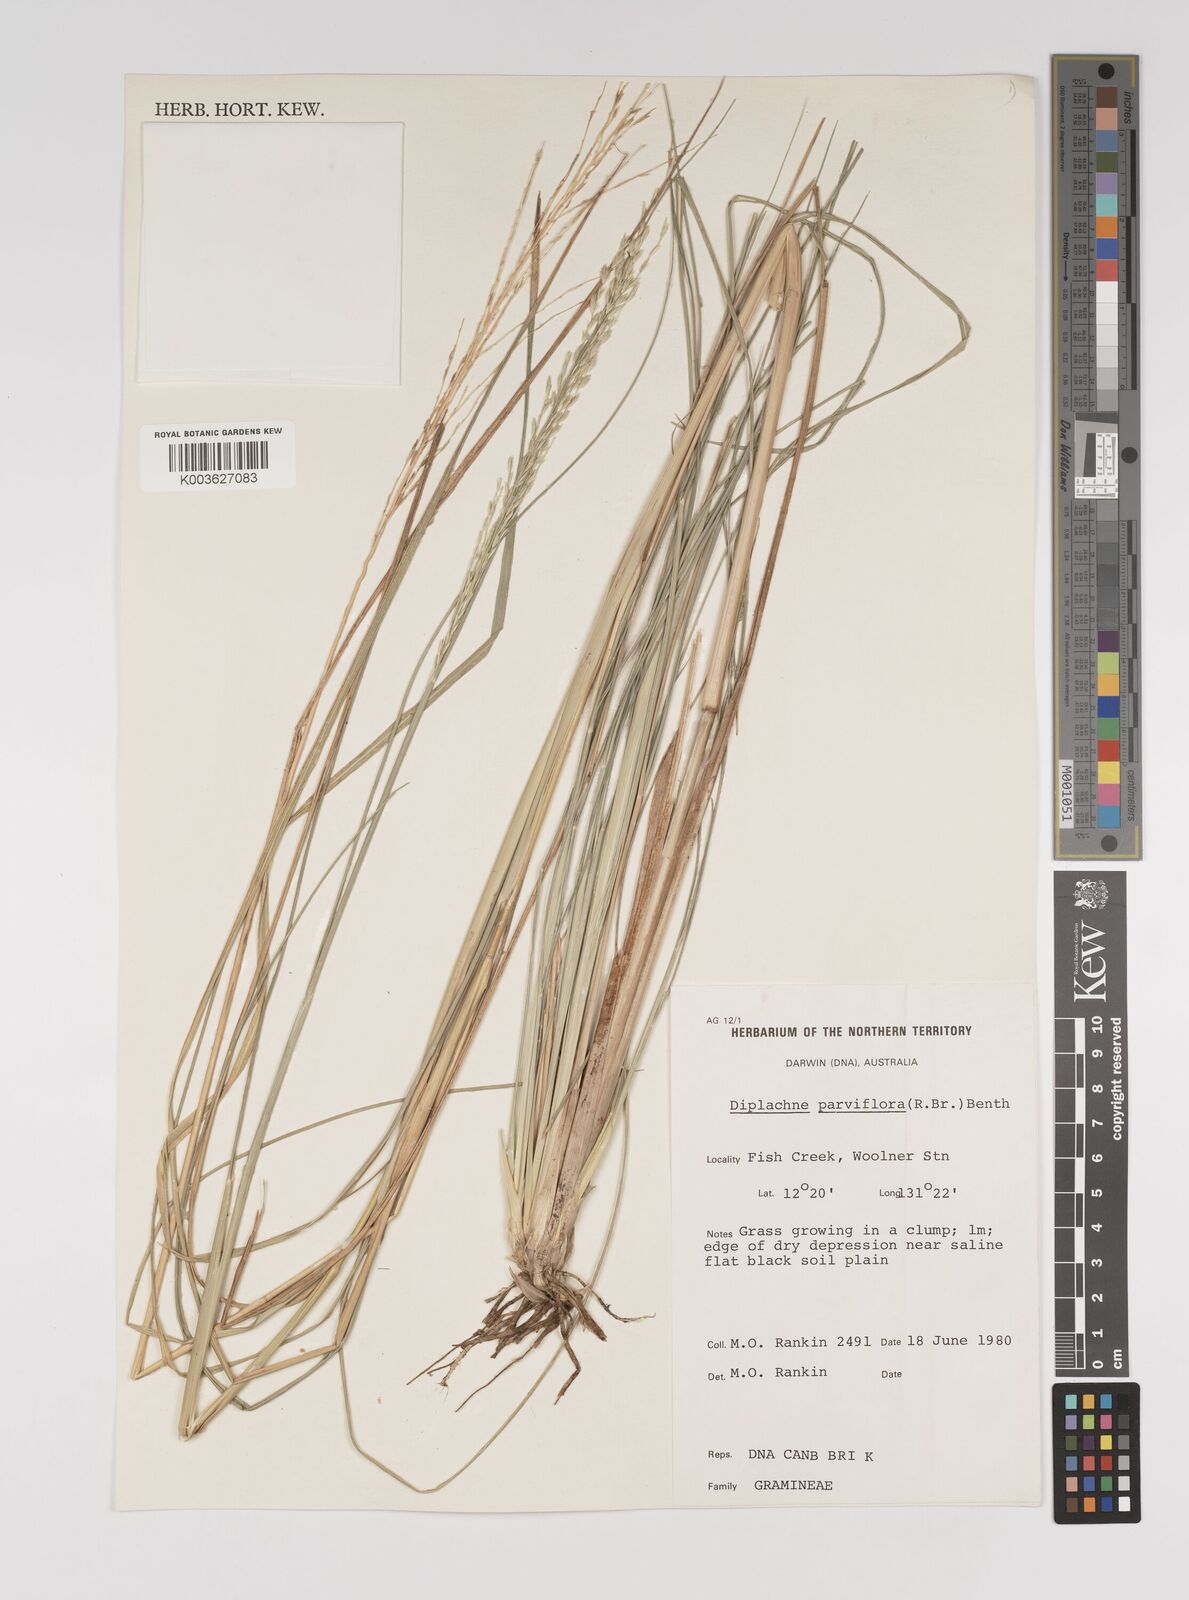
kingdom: Plantae
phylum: Tracheophyta
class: Liliopsida
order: Poales
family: Poaceae
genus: Diplachne
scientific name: Diplachne fusca
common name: Brown beetle grass
